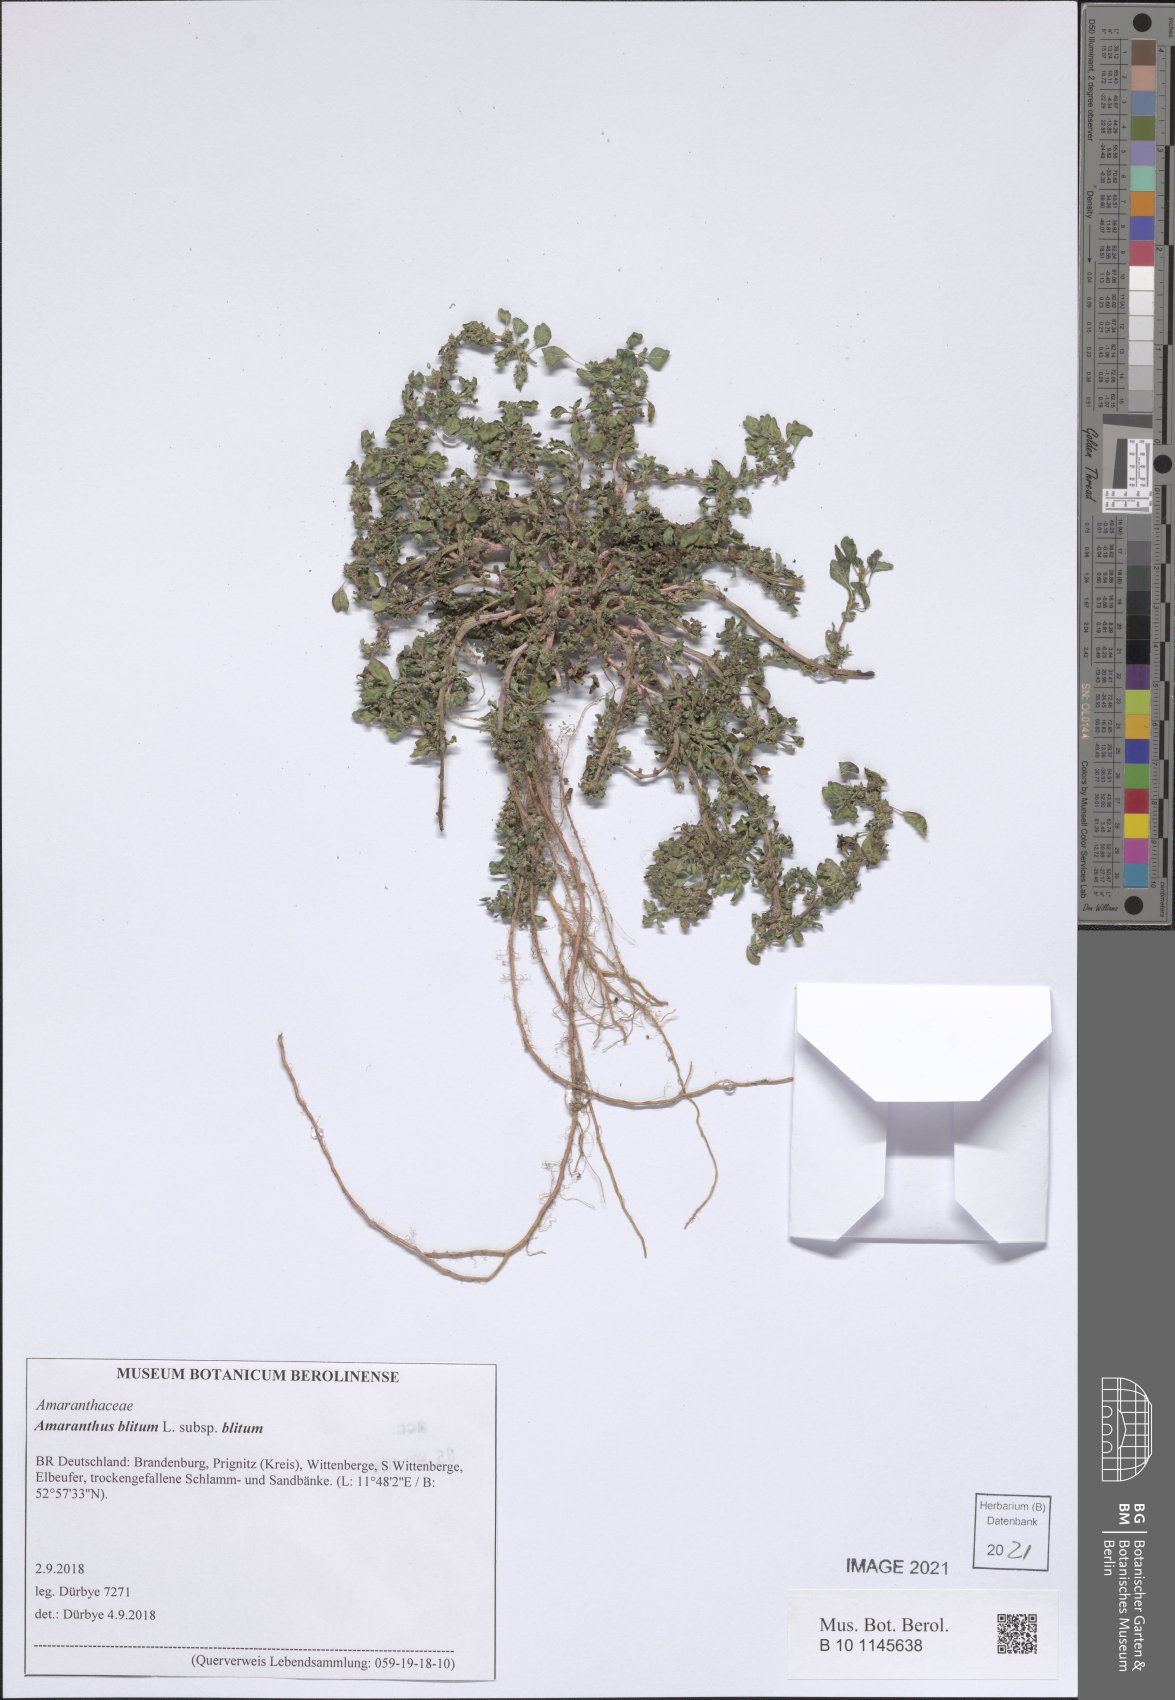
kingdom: Plantae
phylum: Tracheophyta
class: Magnoliopsida
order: Caryophyllales
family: Amaranthaceae
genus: Amaranthus
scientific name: Amaranthus blitum
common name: Purple amaranth
